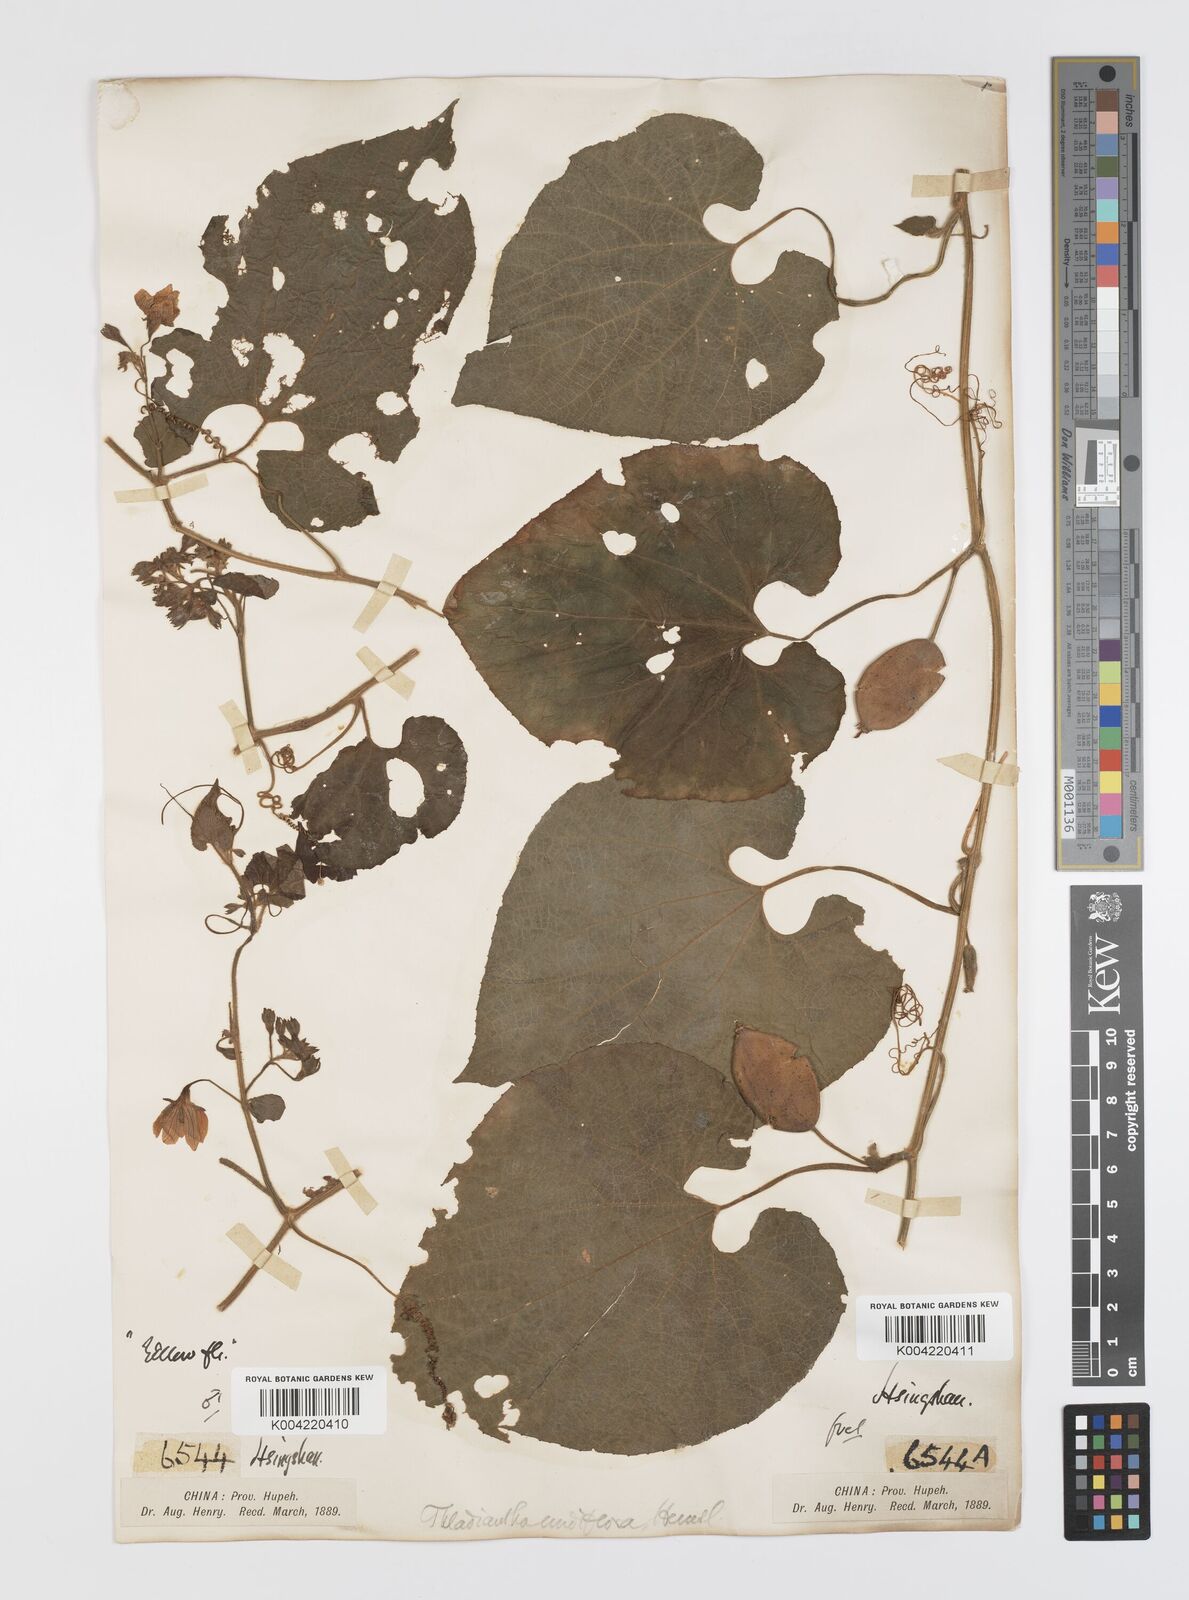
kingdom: Plantae
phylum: Tracheophyta
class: Magnoliopsida
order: Cucurbitales
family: Cucurbitaceae
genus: Thladiantha
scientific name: Thladiantha nudiflora
